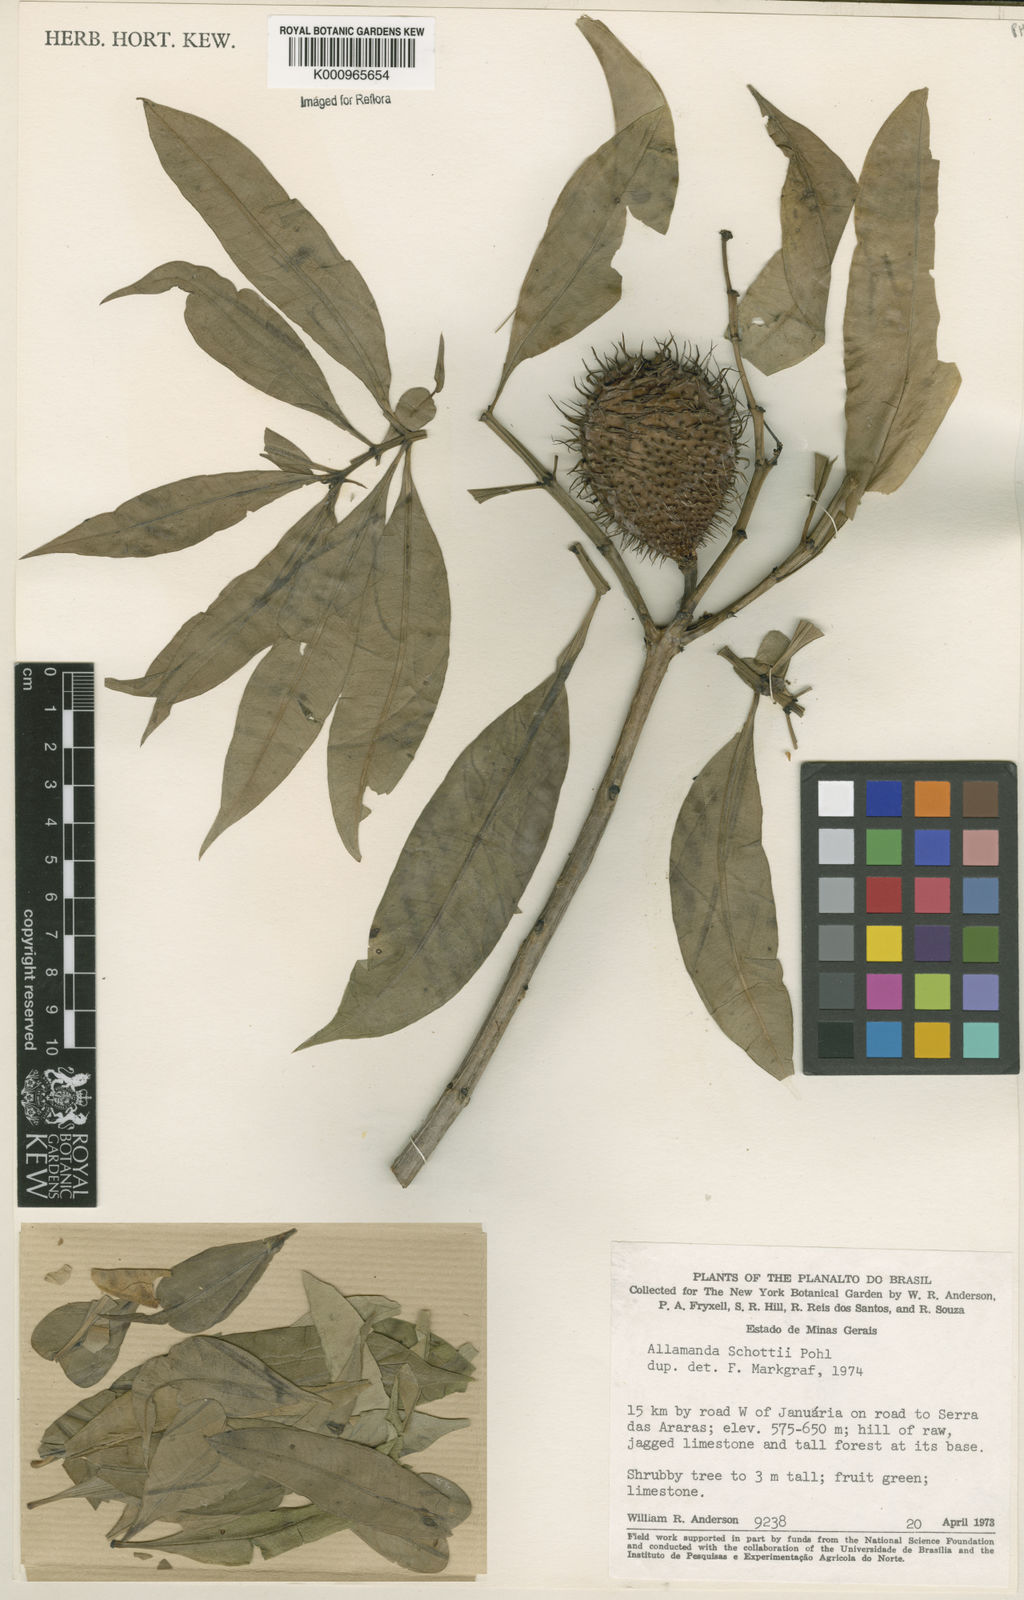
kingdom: Plantae
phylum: Tracheophyta
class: Magnoliopsida
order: Gentianales
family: Apocynaceae
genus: Allamanda
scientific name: Allamanda schottii
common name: Bush allamanda
